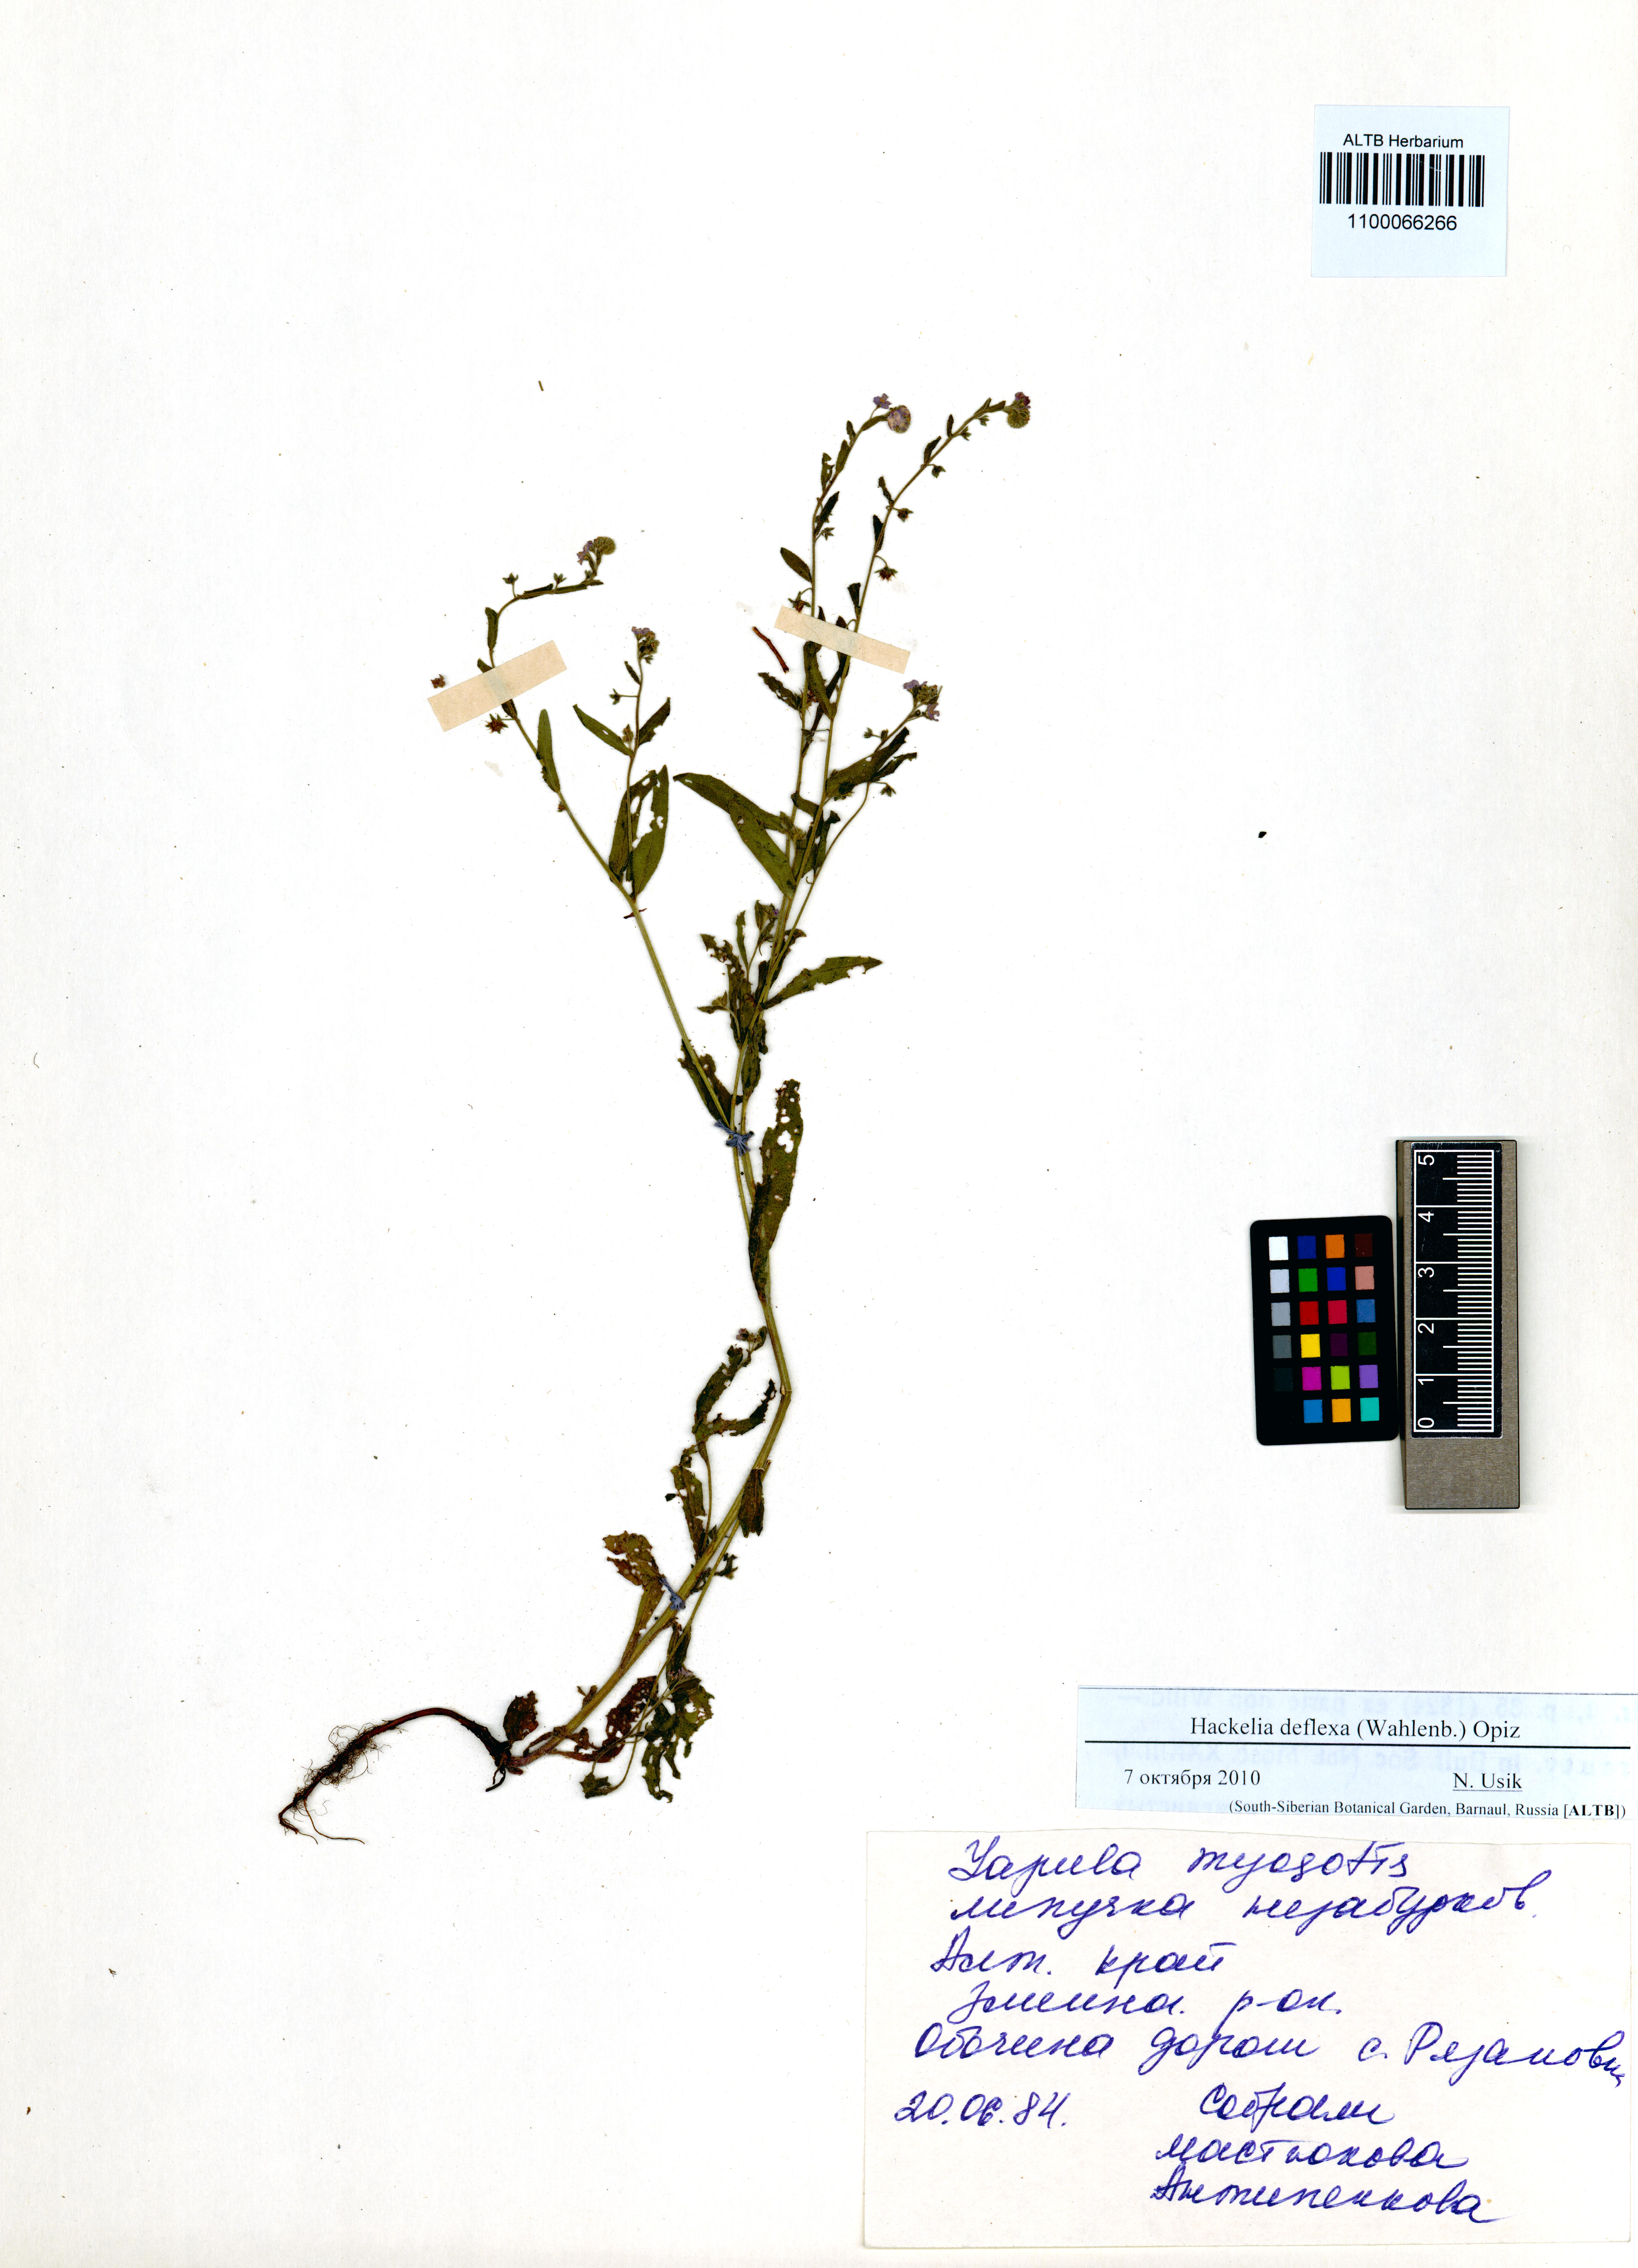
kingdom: Plantae
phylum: Tracheophyta
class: Magnoliopsida
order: Boraginales
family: Boraginaceae
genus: Hackelia
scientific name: Hackelia deflexa
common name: Nodding stickseed
